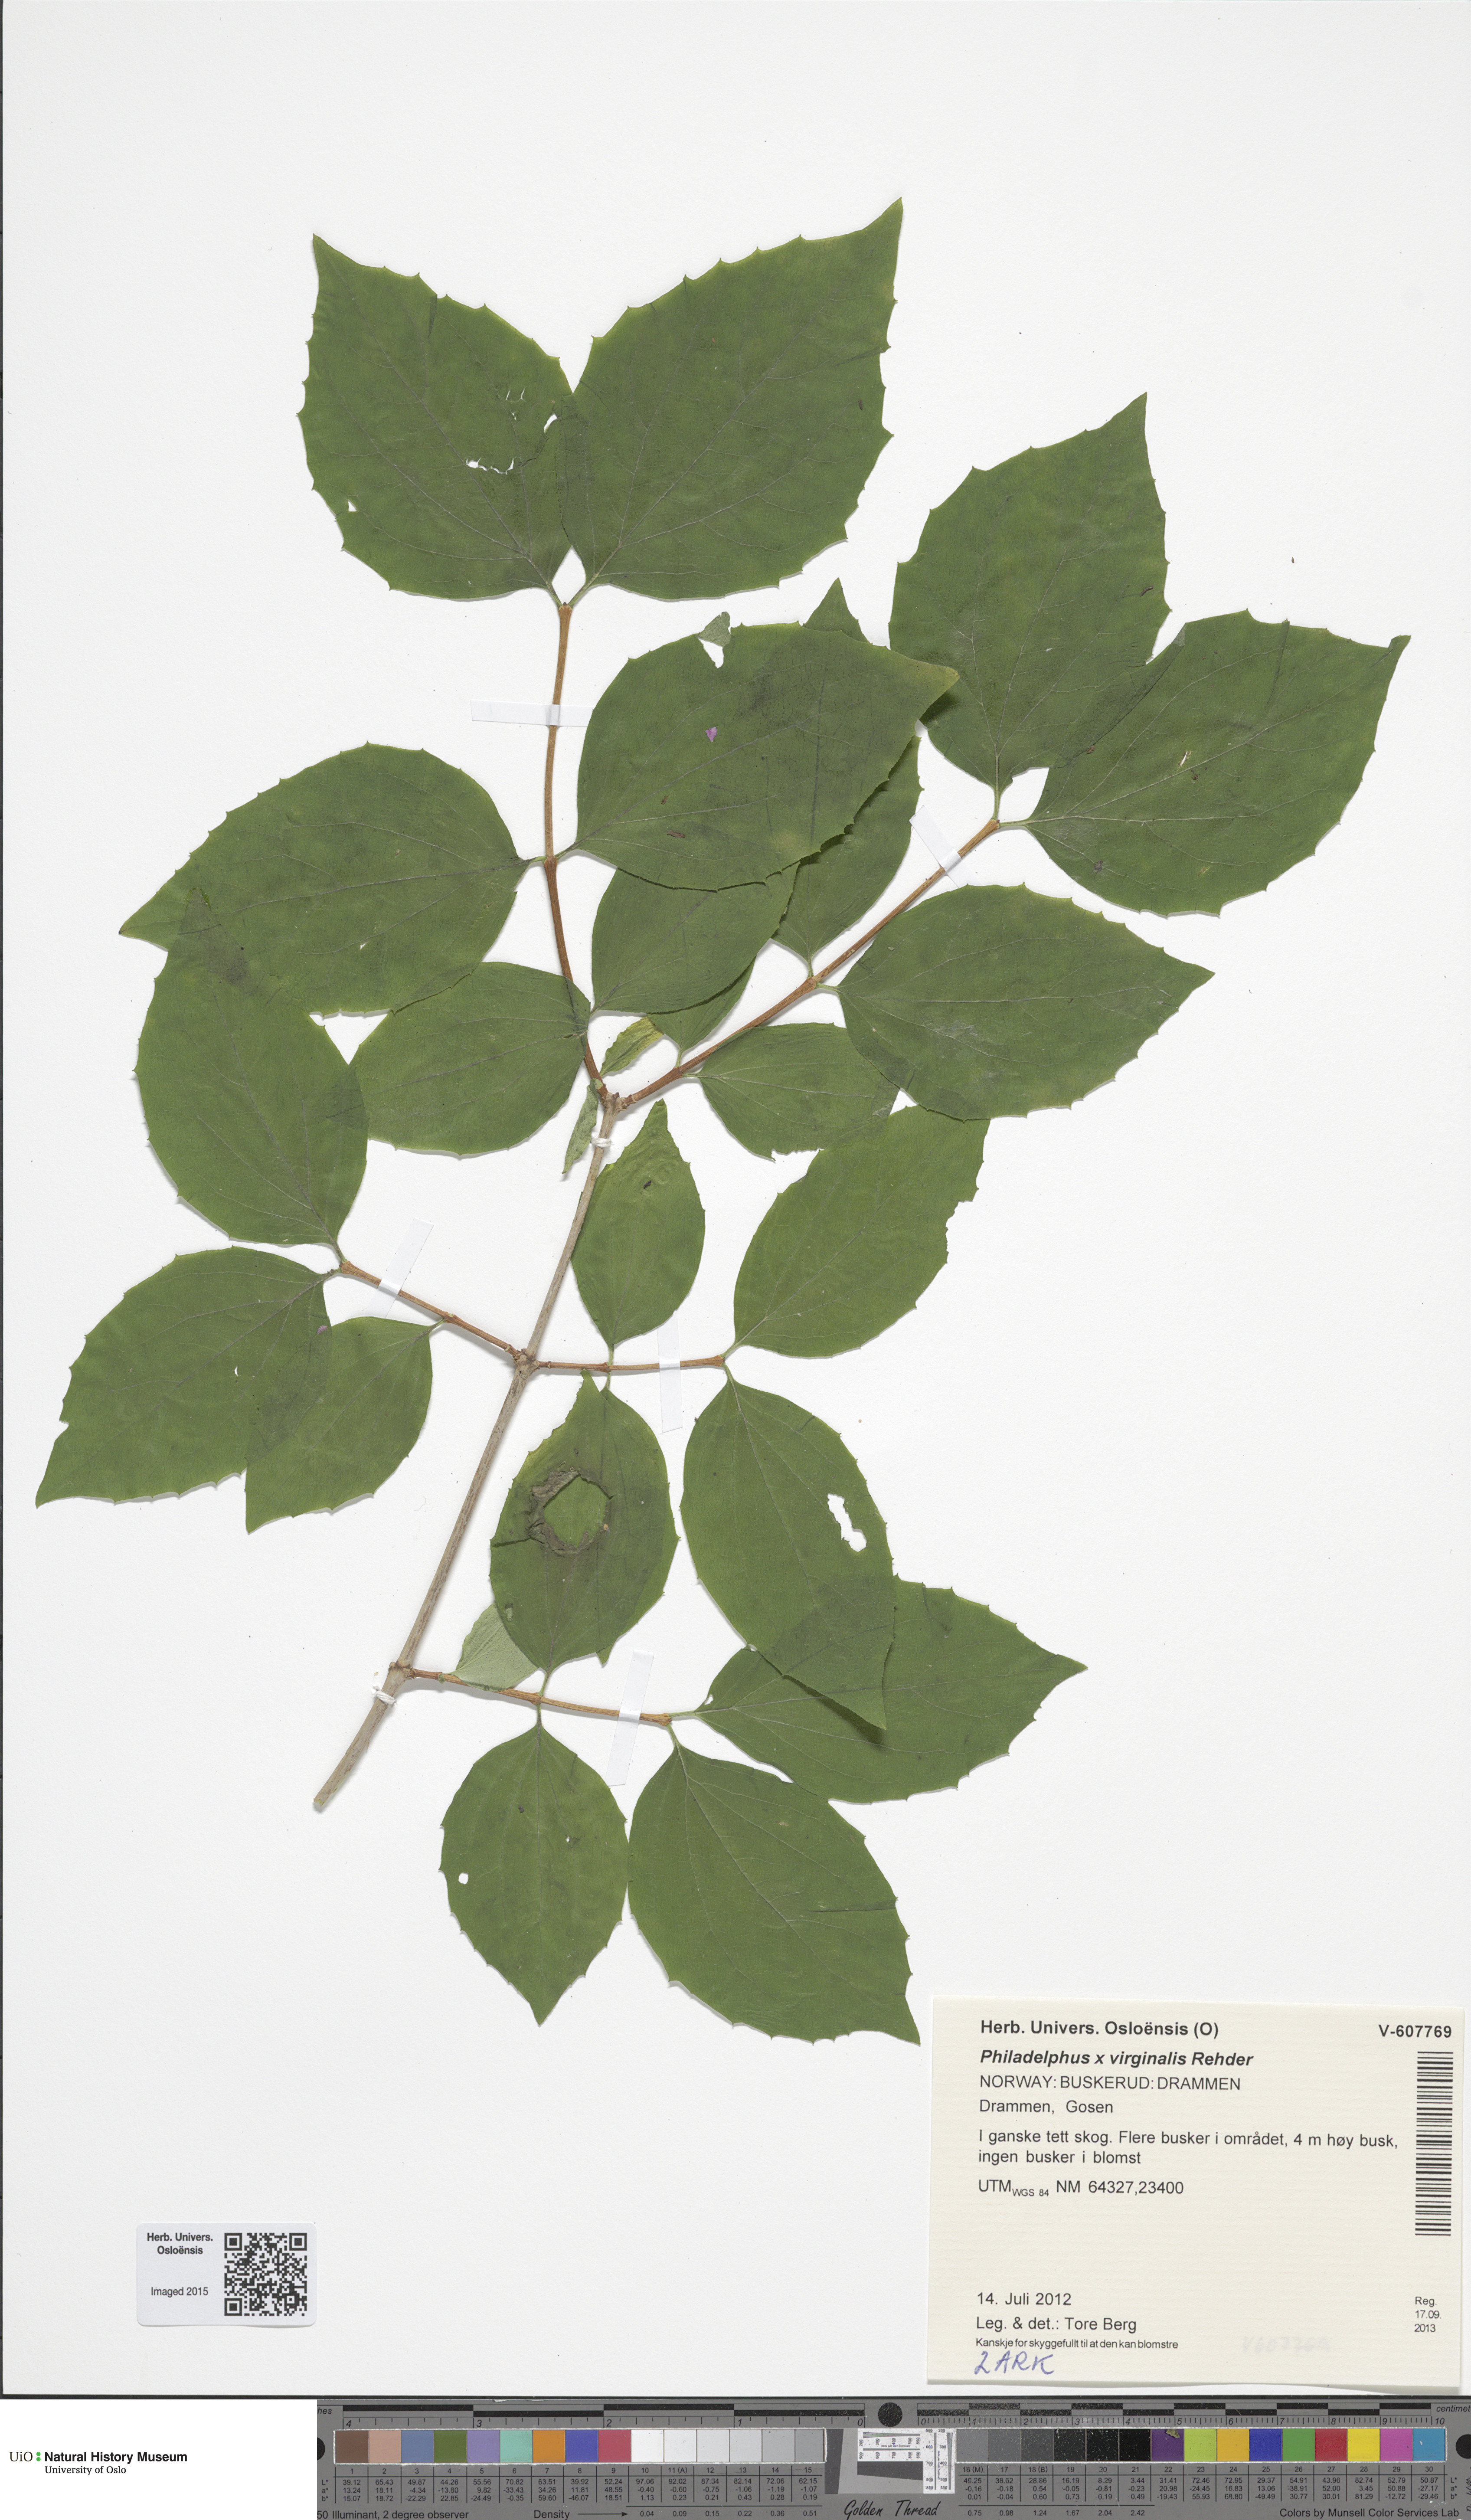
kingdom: Plantae
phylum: Tracheophyta
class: Magnoliopsida
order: Cornales
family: Hydrangeaceae
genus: Philadelphus
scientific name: Philadelphus pubescens
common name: Broadleaf mock orange
